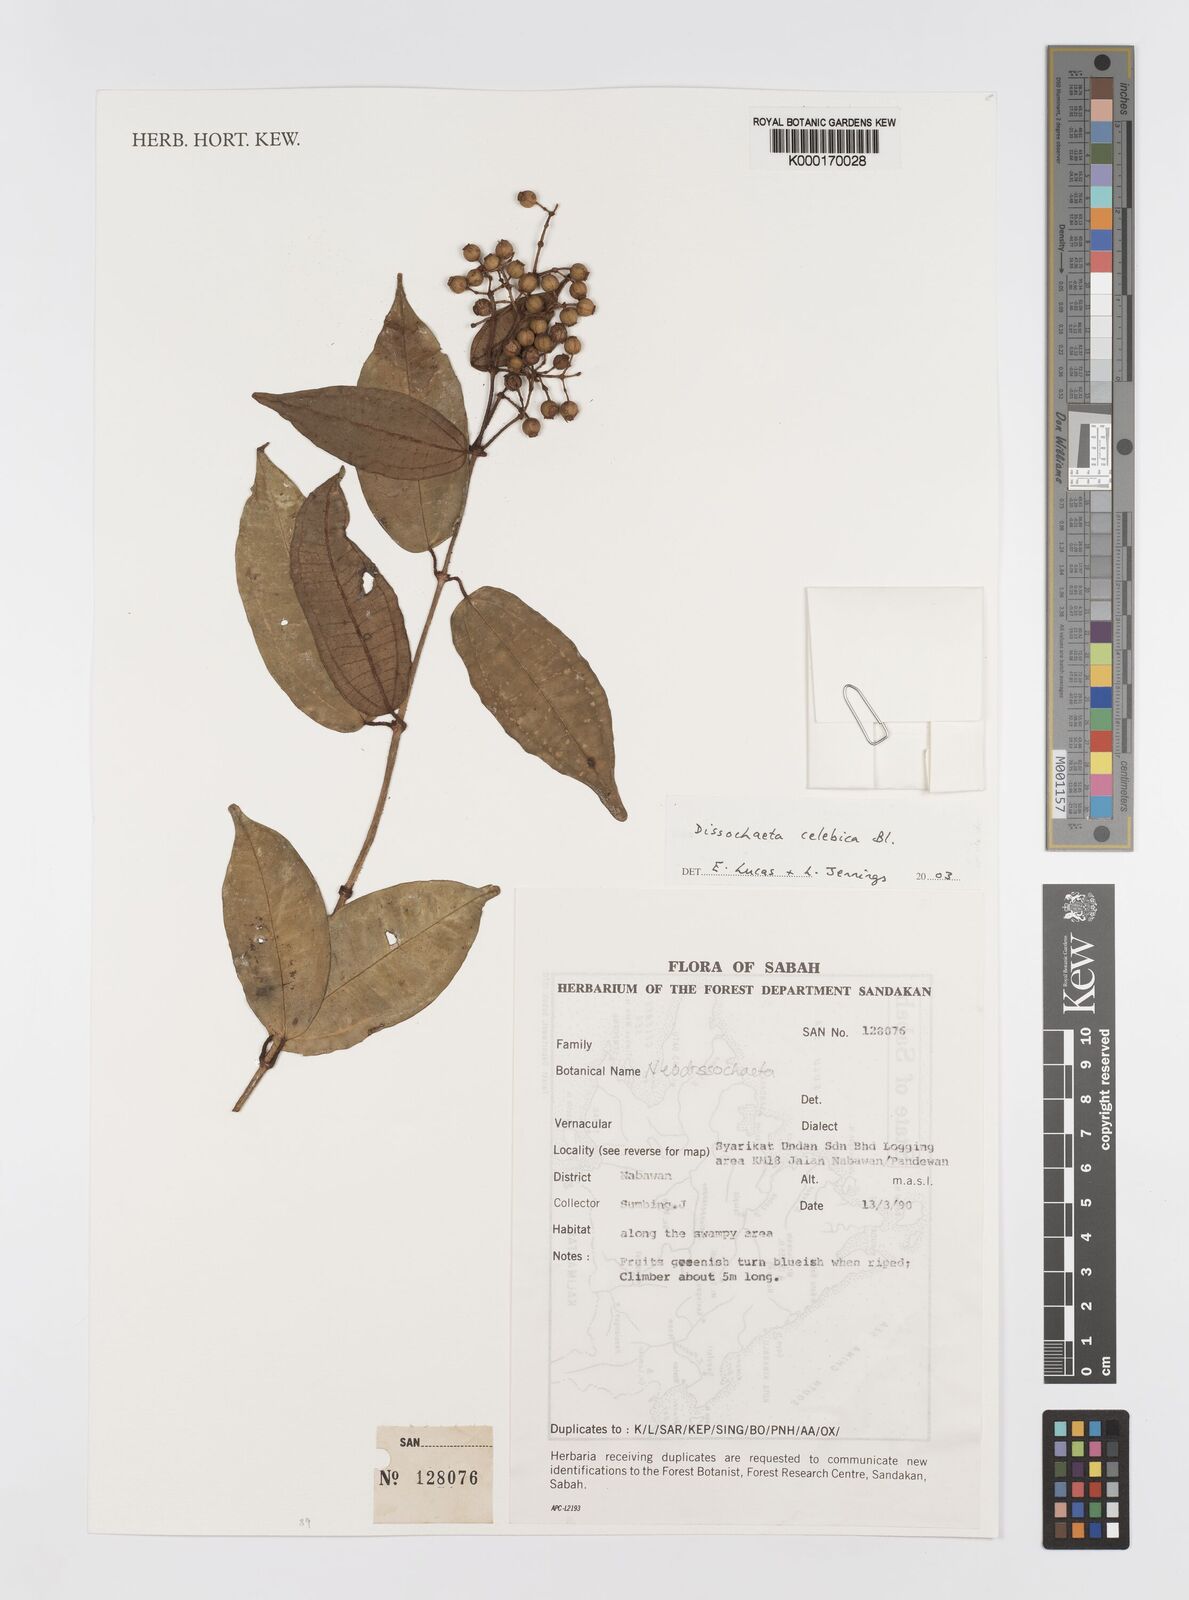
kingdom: Plantae
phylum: Tracheophyta
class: Magnoliopsida
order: Myrtales
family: Melastomataceae
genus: Dissochaeta
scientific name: Dissochaeta celebica
